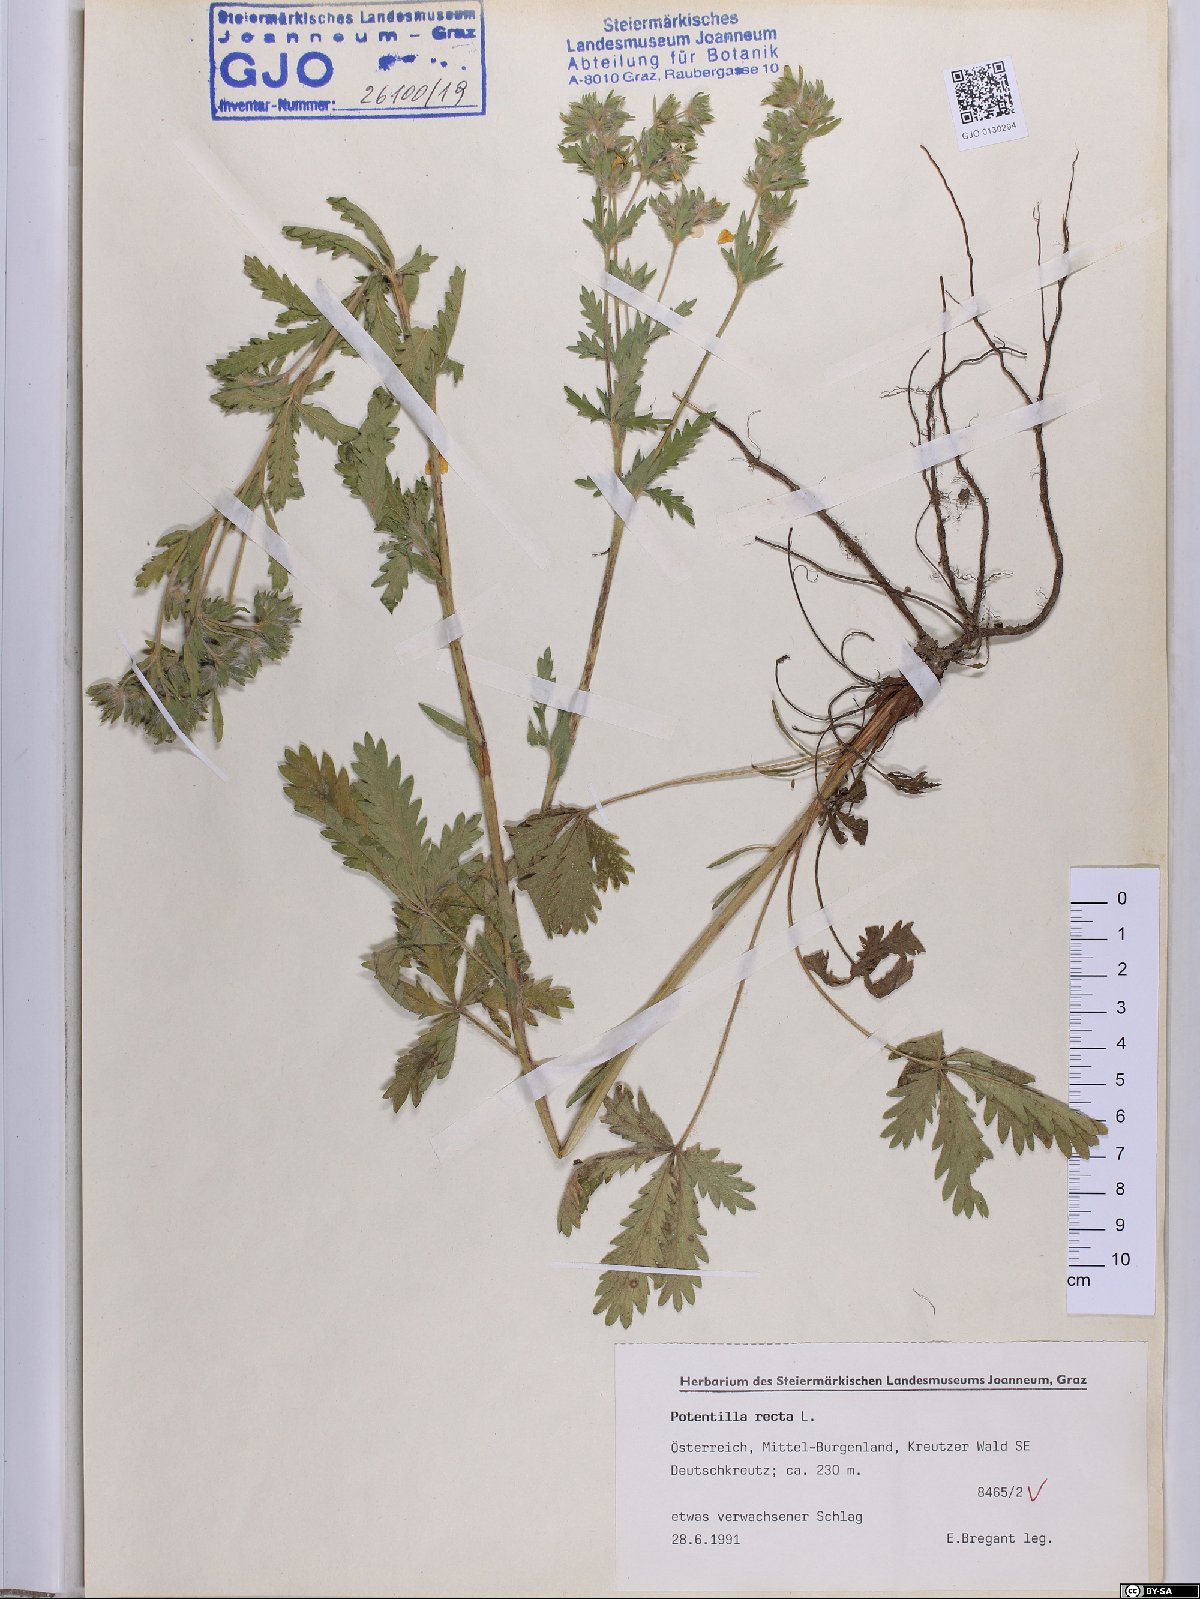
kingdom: Plantae
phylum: Tracheophyta
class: Magnoliopsida
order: Rosales
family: Rosaceae
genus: Potentilla
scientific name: Potentilla recta
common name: Sulphur cinquefoil
